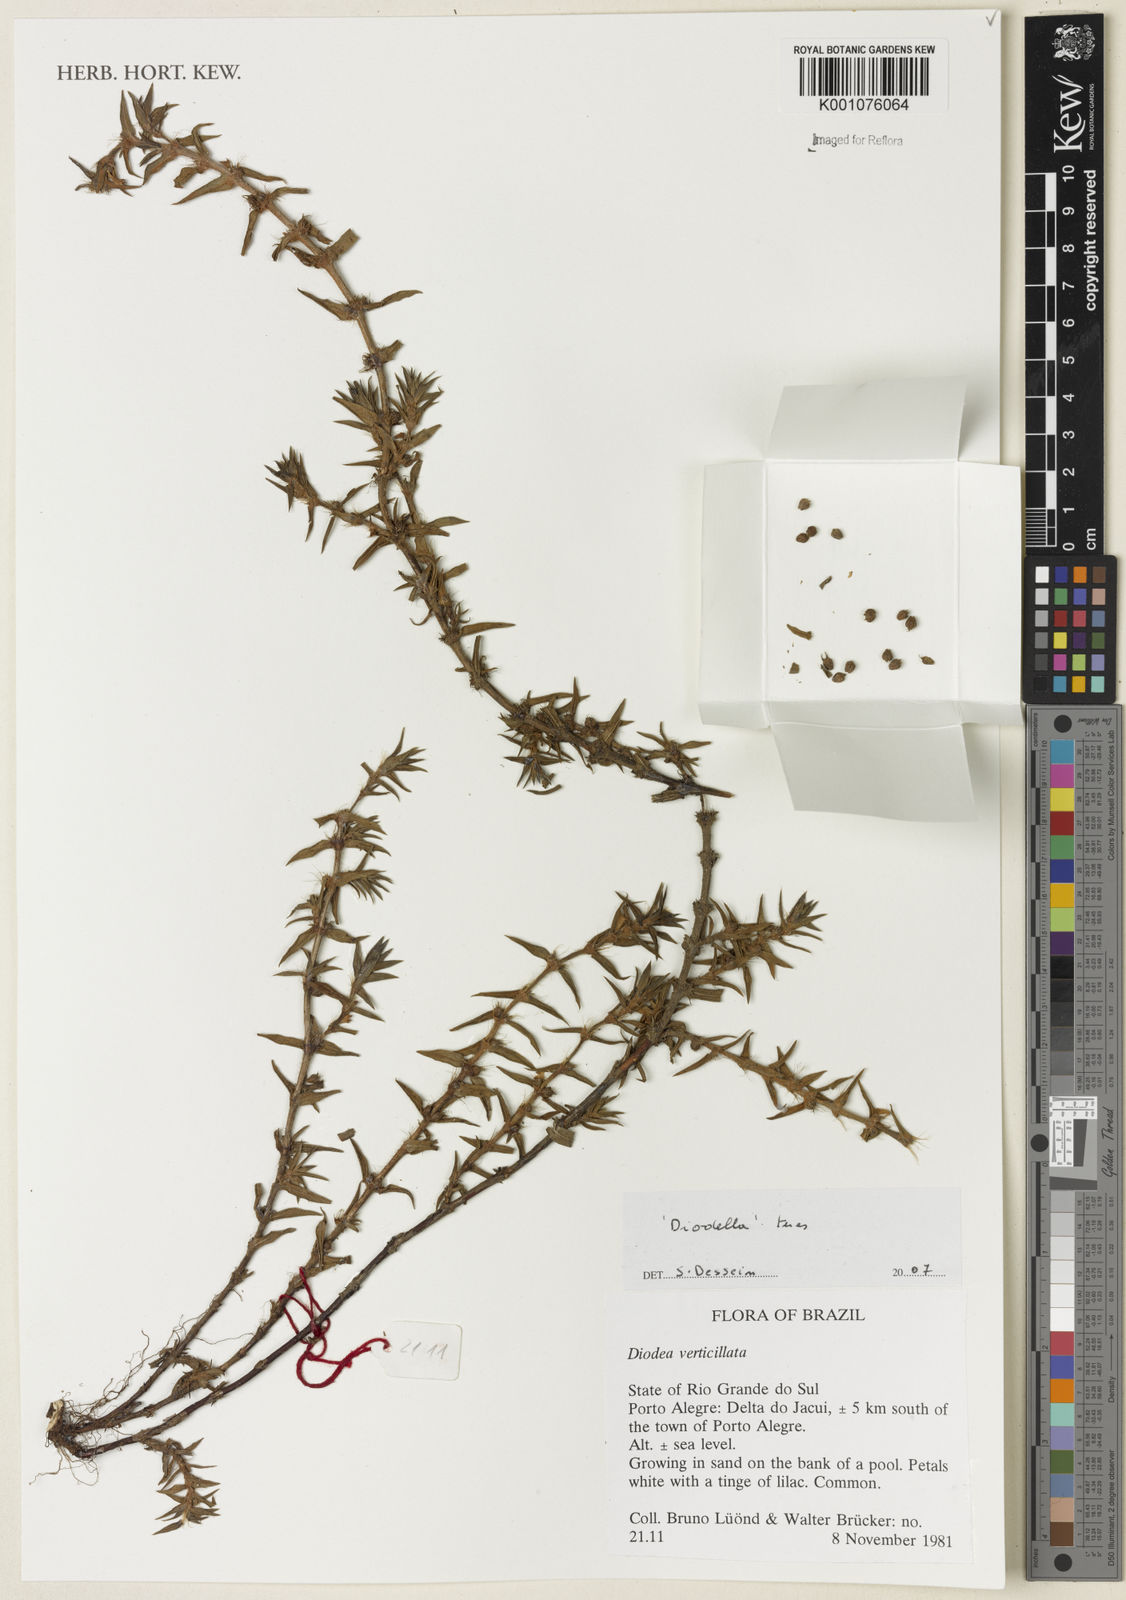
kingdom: Plantae
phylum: Tracheophyta
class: Magnoliopsida
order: Gentianales
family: Rubiaceae
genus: Diodia
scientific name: Diodia
